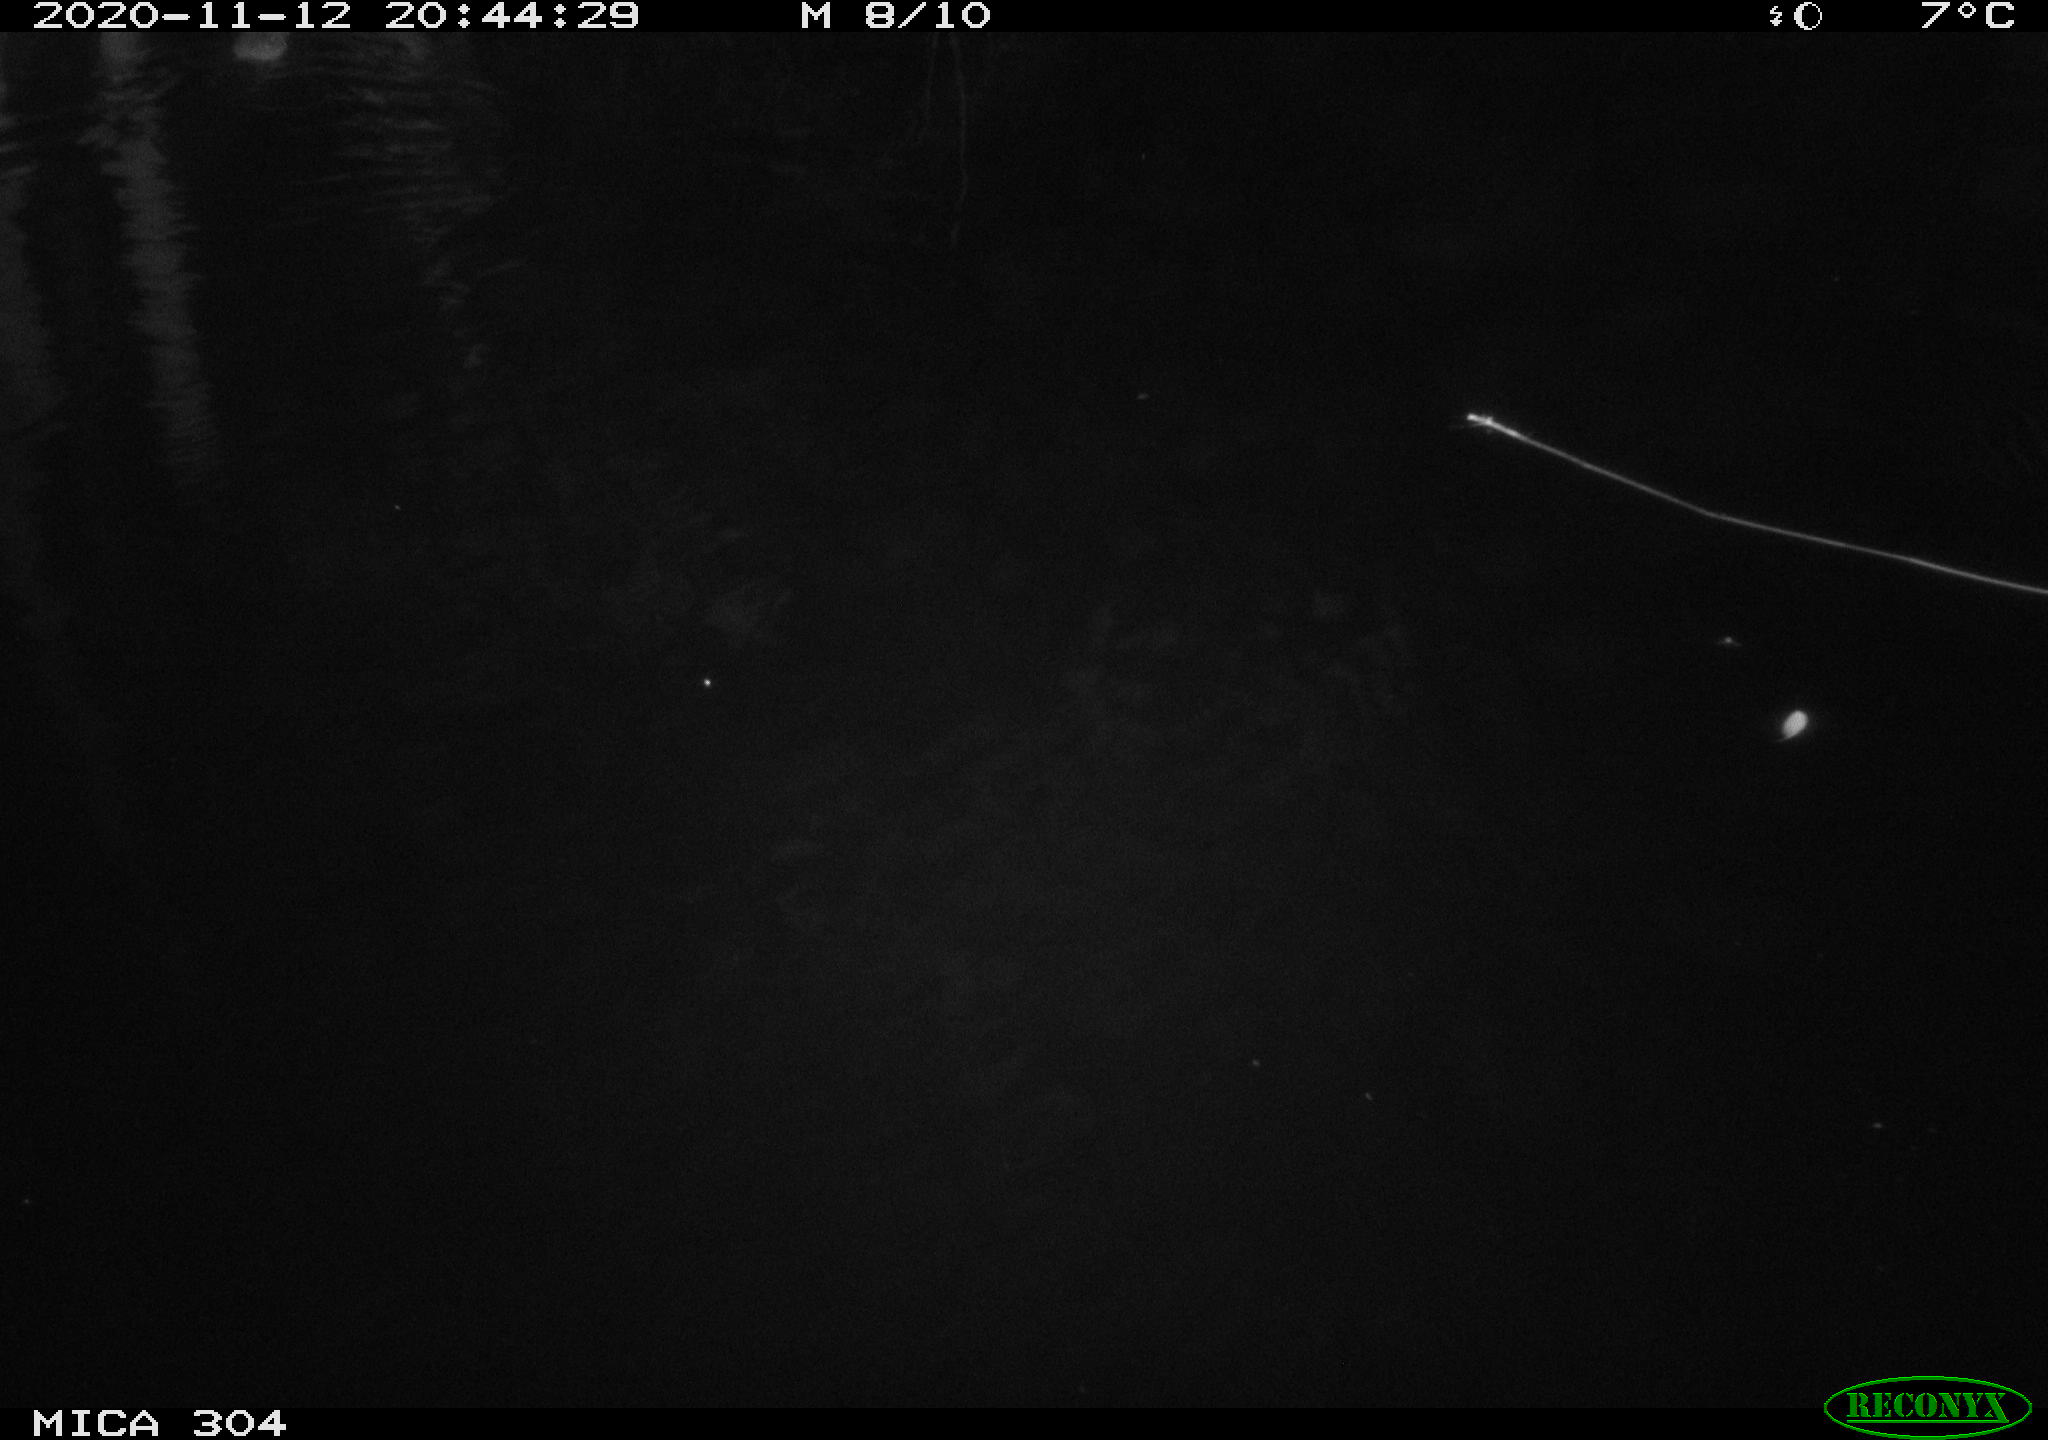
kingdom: Animalia
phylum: Chordata
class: Mammalia
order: Rodentia
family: Cricetidae
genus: Ondatra
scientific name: Ondatra zibethicus
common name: Muskrat
